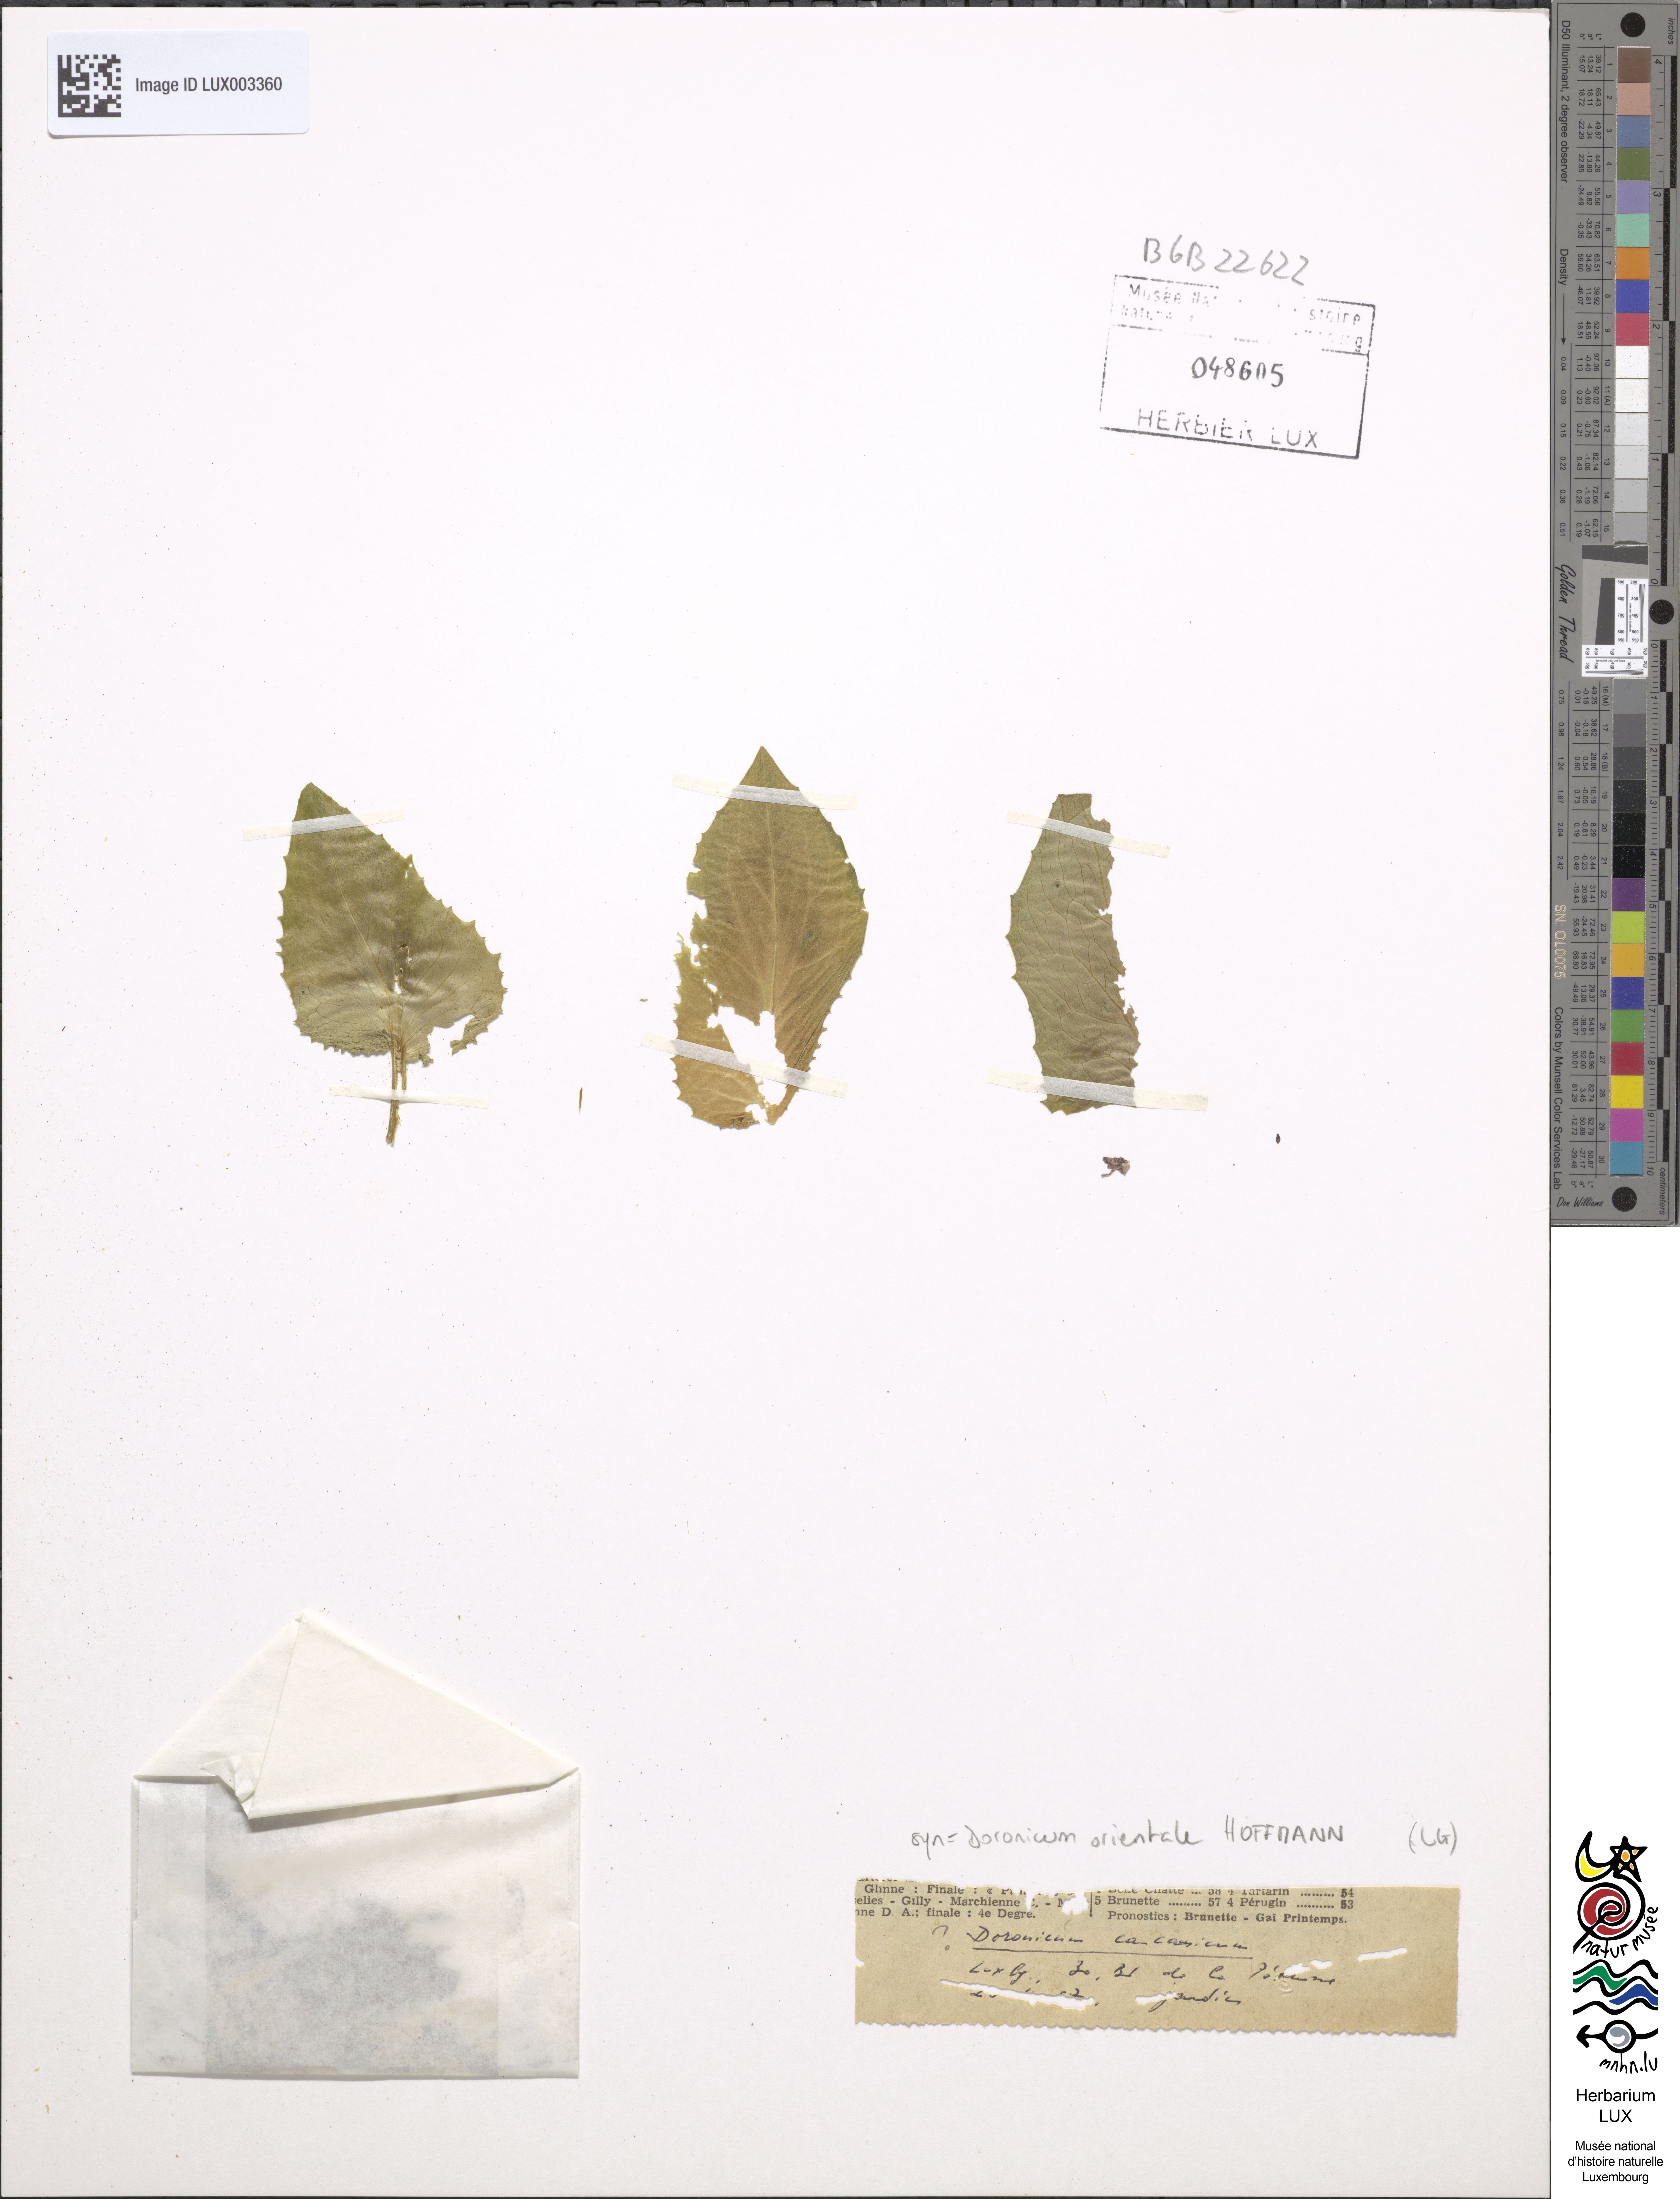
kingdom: Plantae
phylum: Tracheophyta
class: Magnoliopsida
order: Asterales
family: Asteraceae
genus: Doronicum
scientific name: Doronicum orientale
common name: Oriental leopard's-bane
